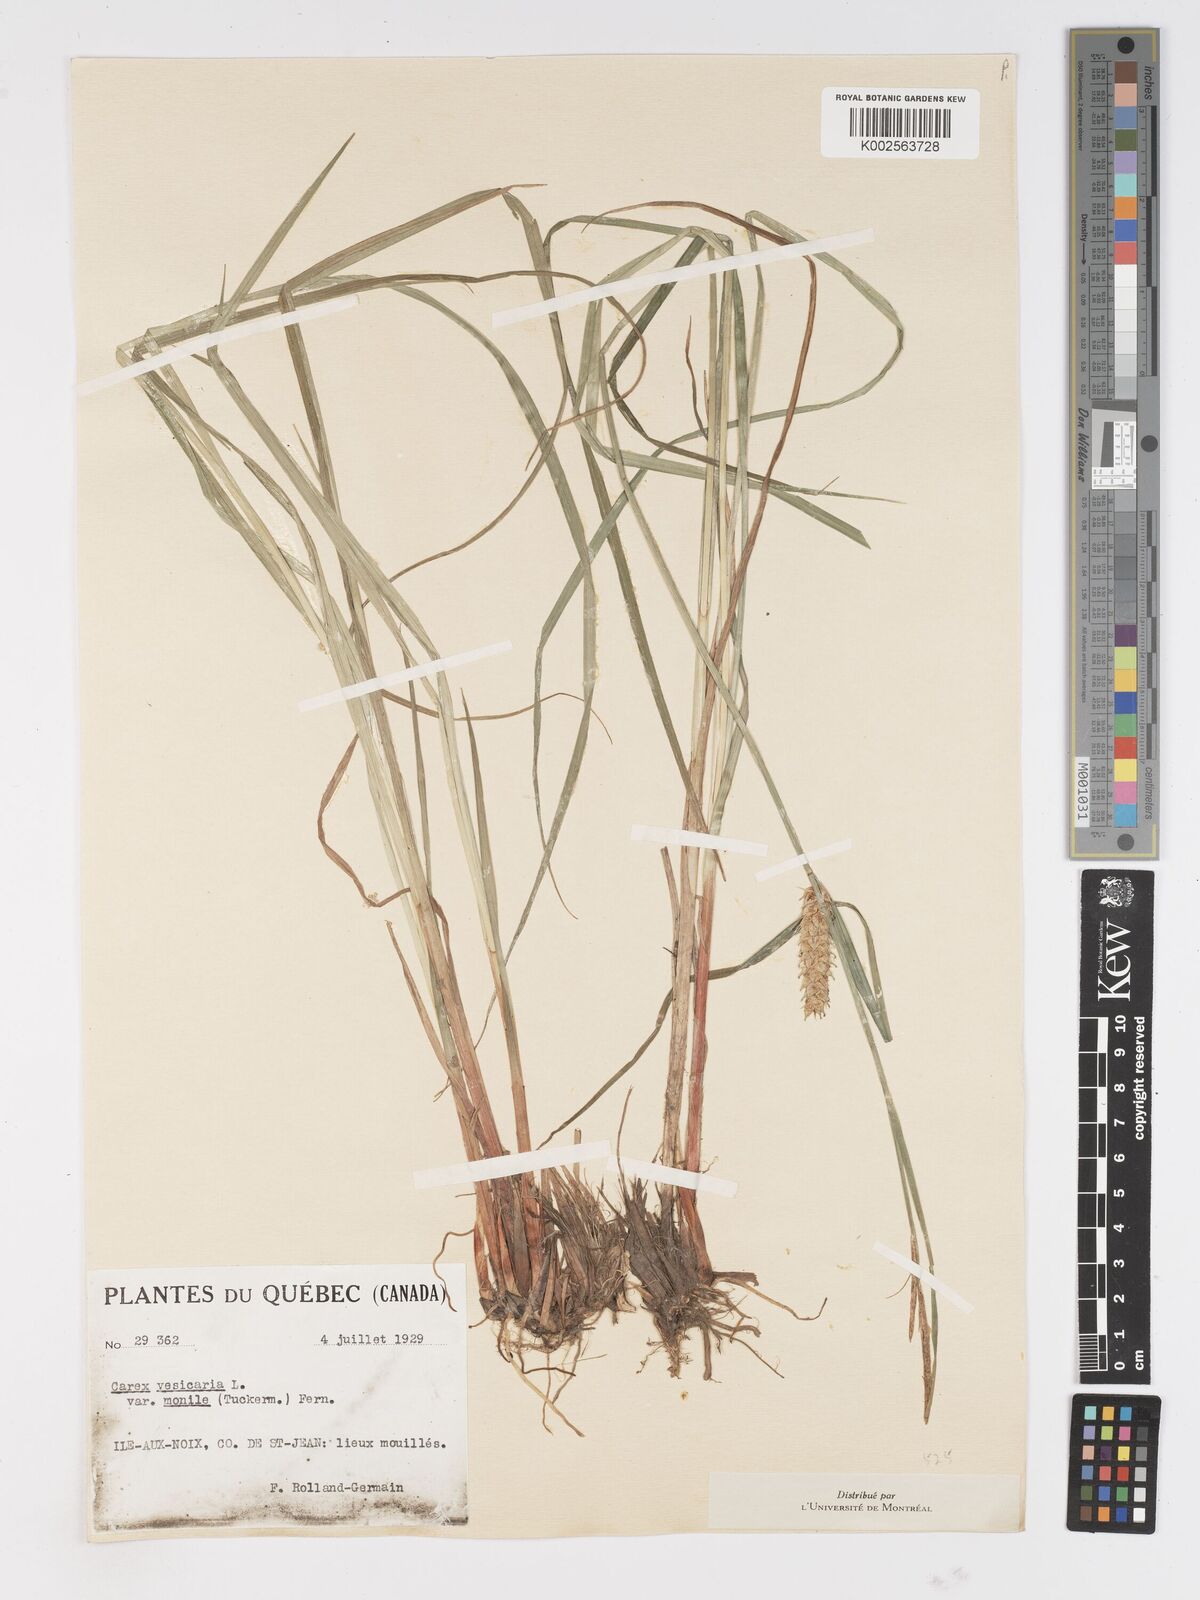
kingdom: Plantae
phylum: Tracheophyta
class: Liliopsida
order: Poales
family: Cyperaceae
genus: Carex
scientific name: Carex vesicaria
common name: Bladder-sedge
